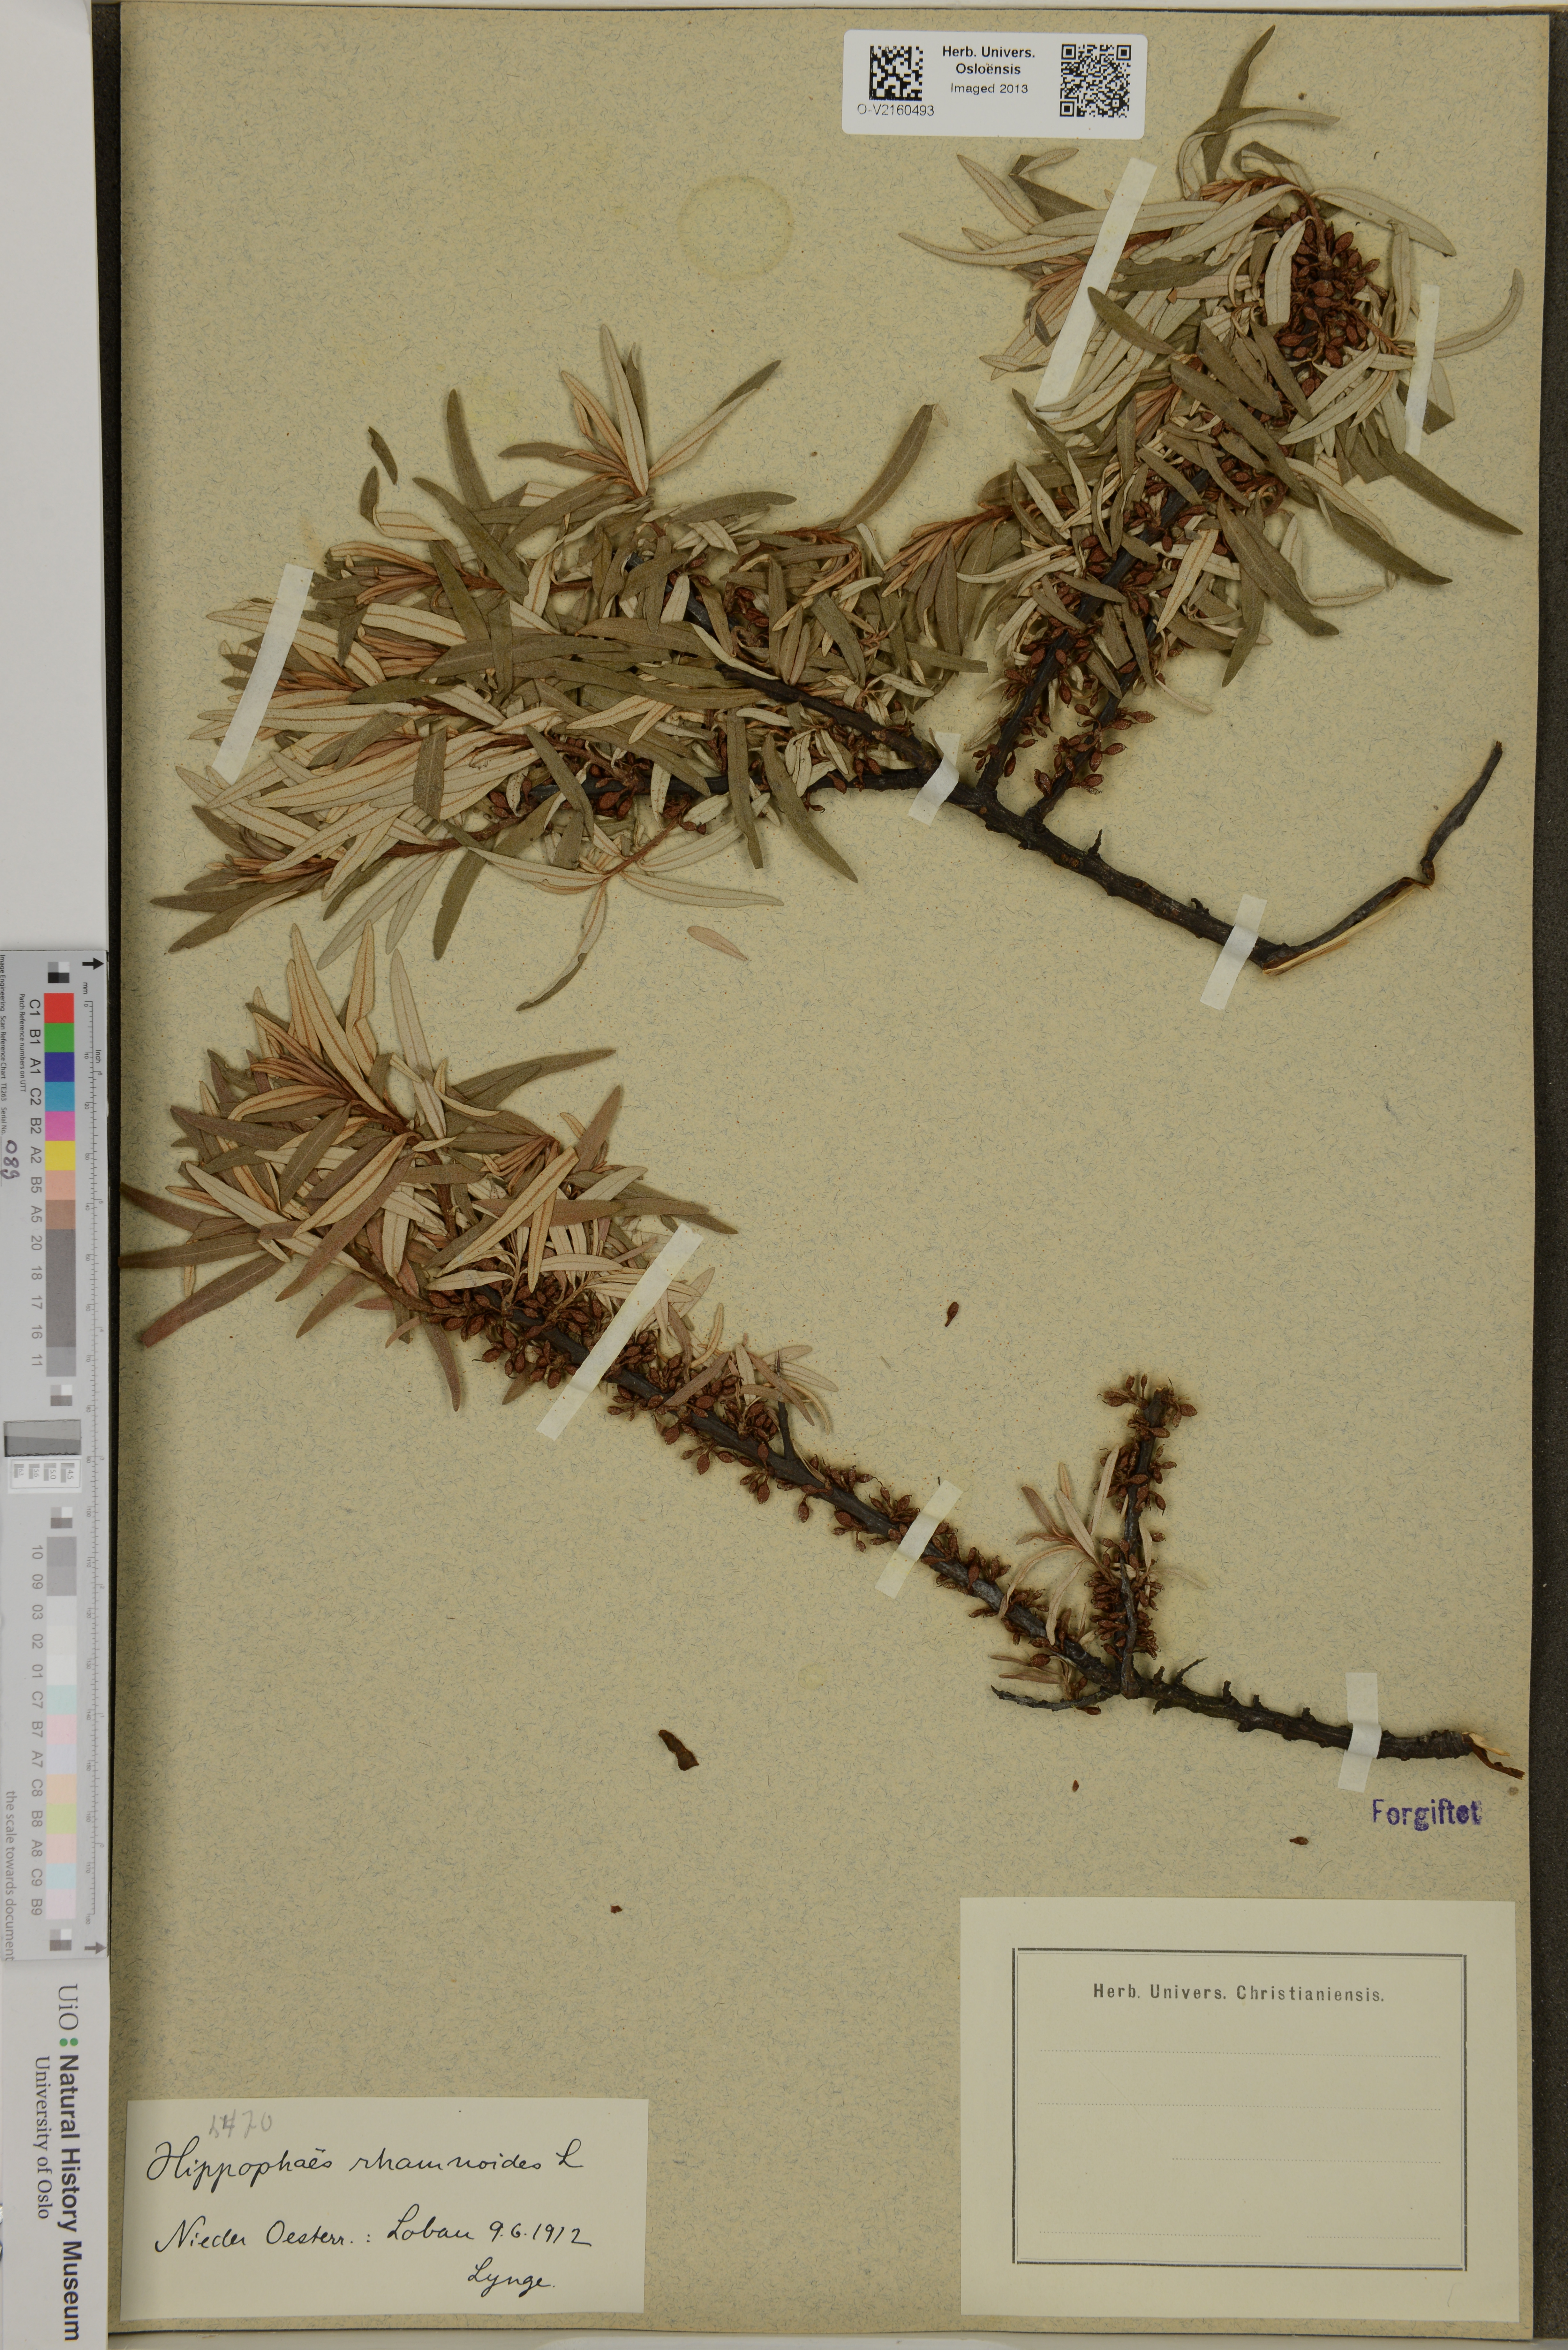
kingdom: Plantae
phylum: Tracheophyta
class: Magnoliopsida
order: Rosales
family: Elaeagnaceae
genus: Hippophae
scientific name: Hippophae rhamnoides
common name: Sea-buckthorn
